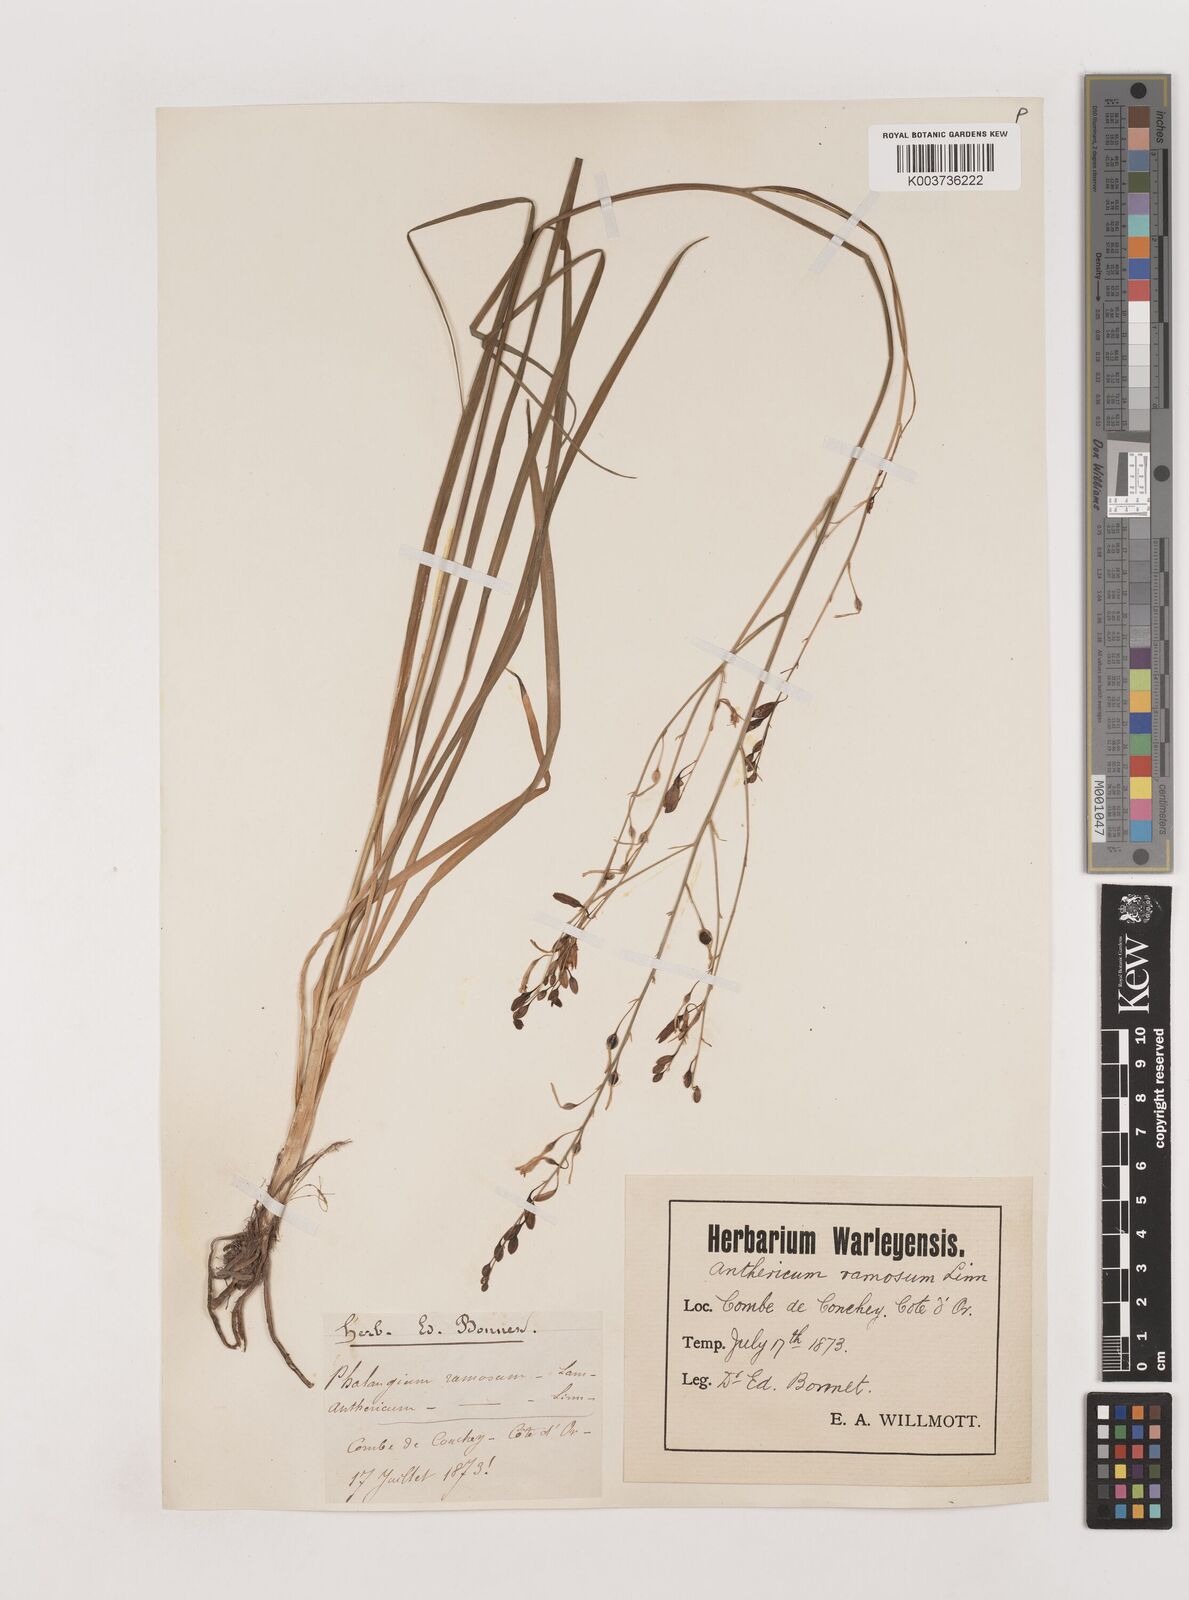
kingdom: Plantae
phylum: Tracheophyta
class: Liliopsida
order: Asparagales
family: Asparagaceae
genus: Anthericum
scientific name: Anthericum ramosum
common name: Branched st. bernard's-lily
